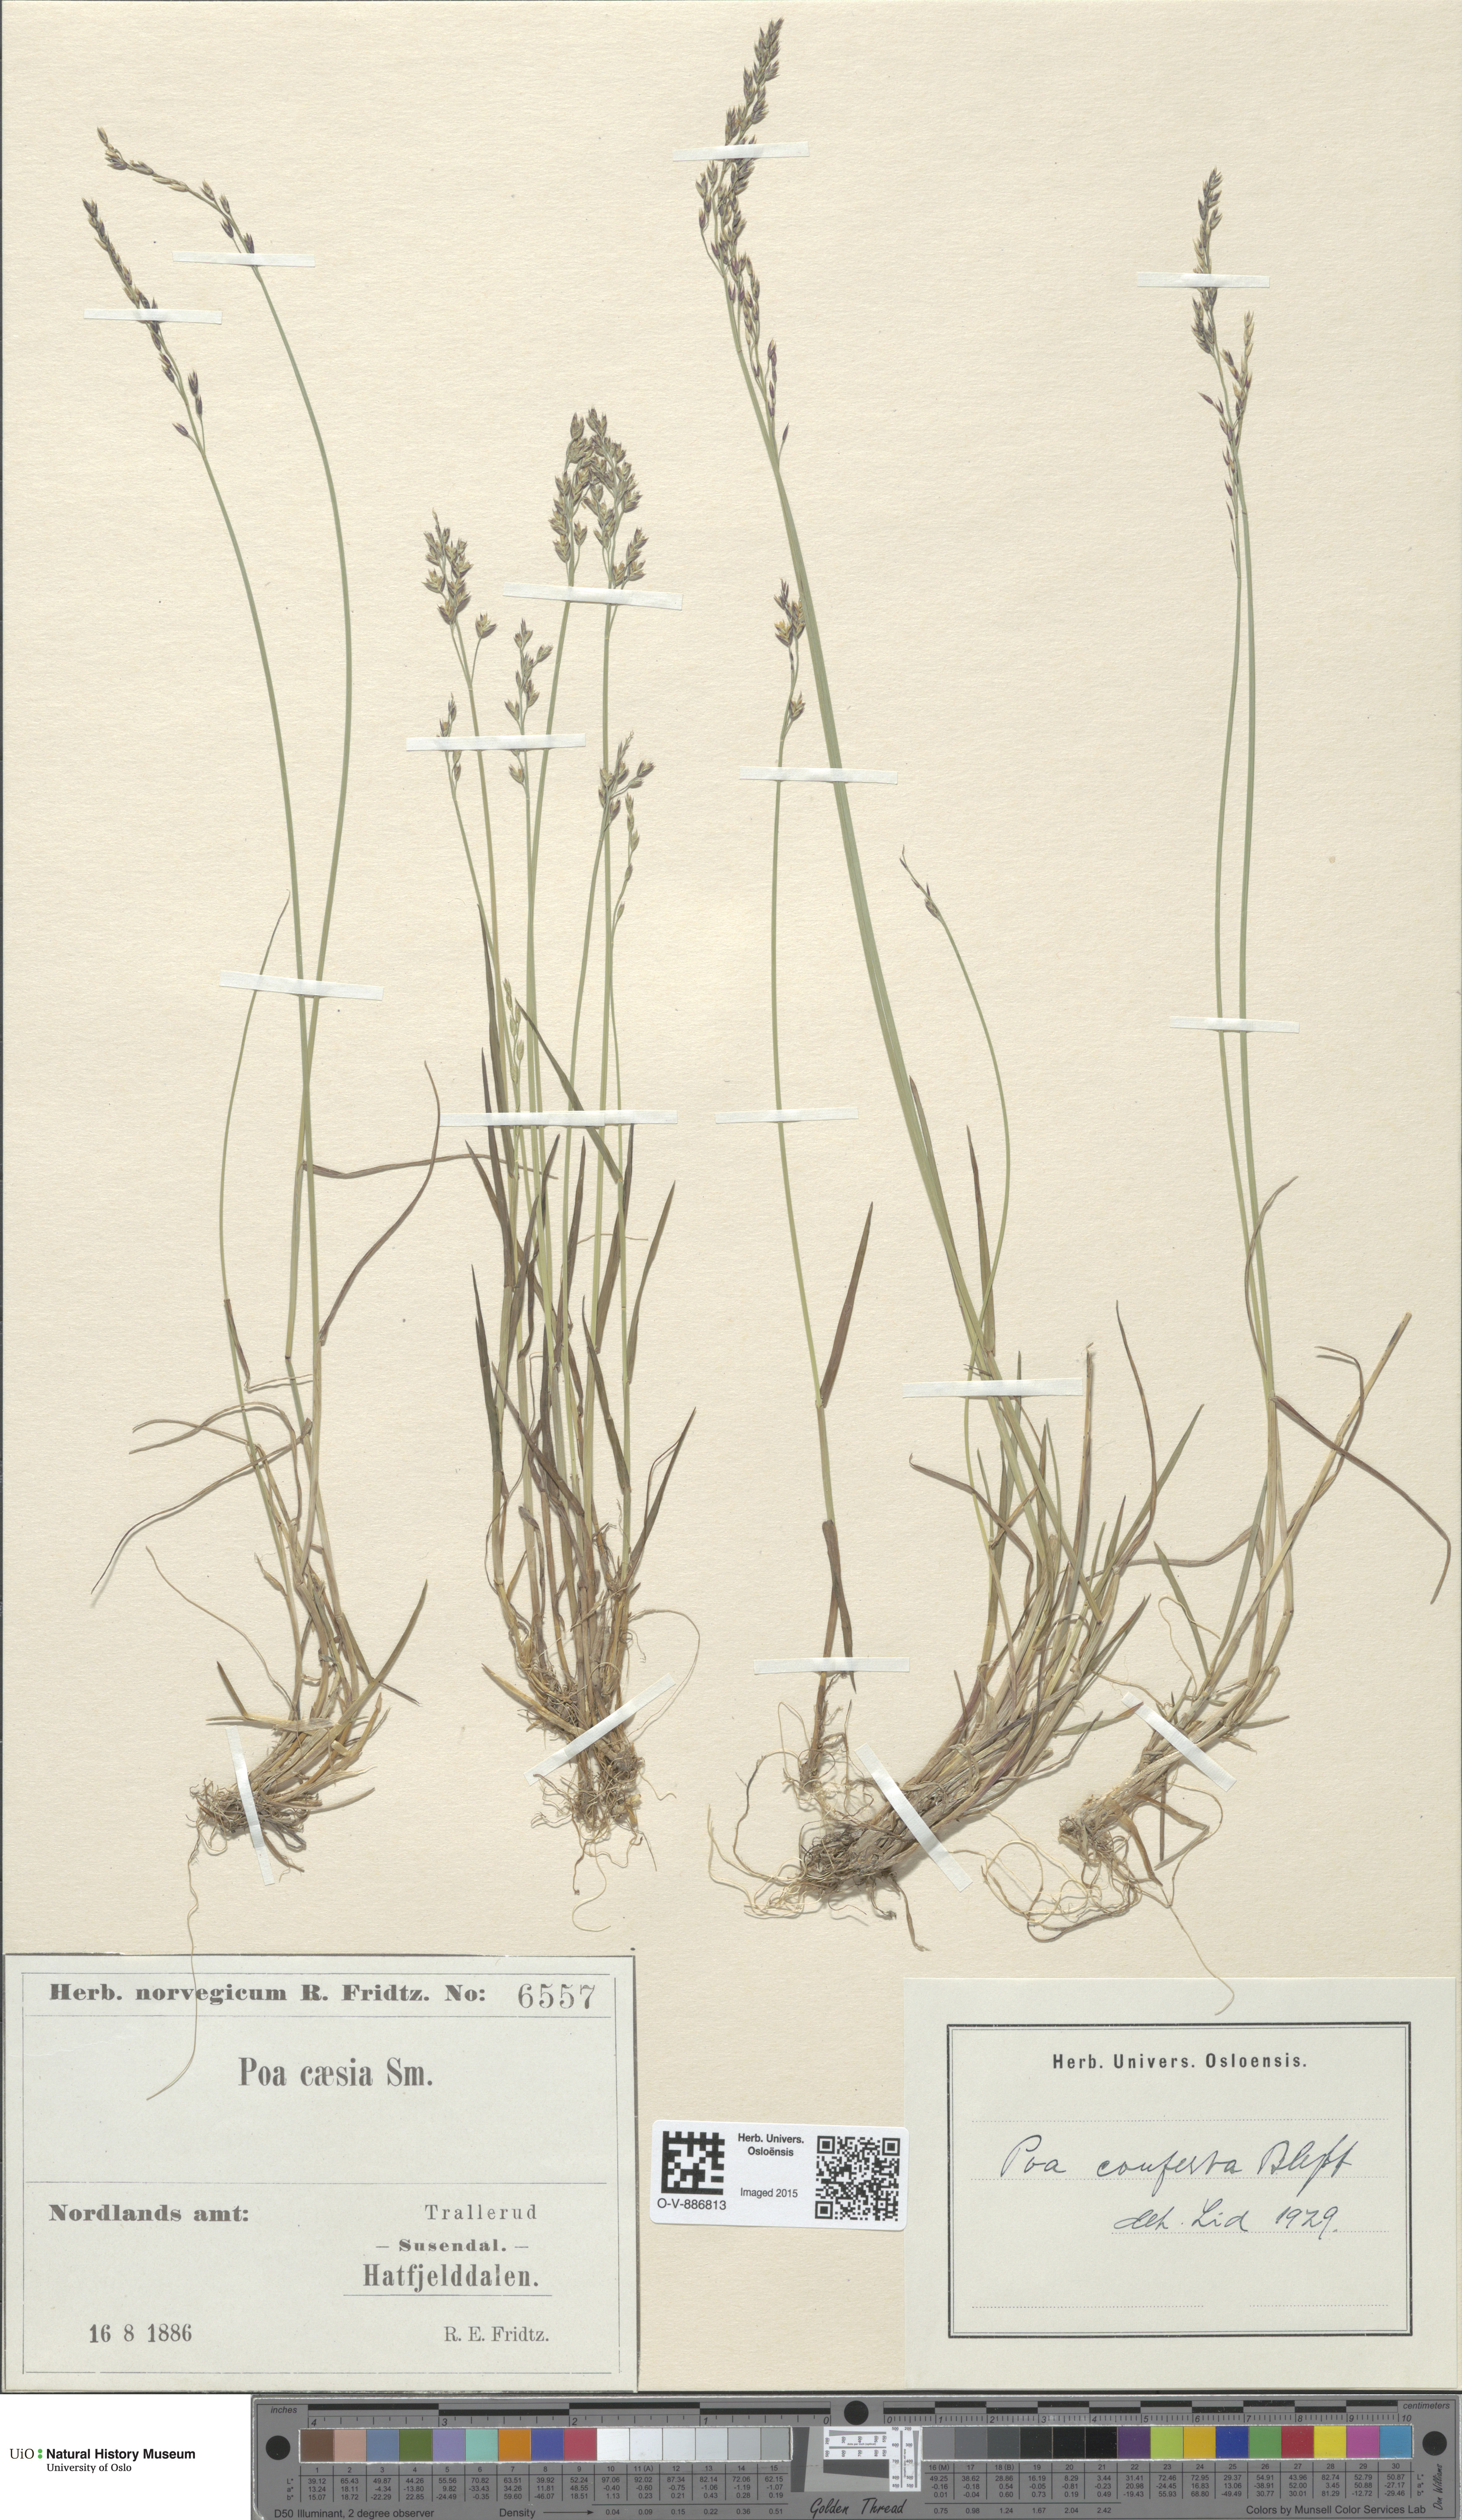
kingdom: Plantae
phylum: Tracheophyta
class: Liliopsida
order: Poales
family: Poaceae
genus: Poa
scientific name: Poa glauca
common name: Glaucous bluegrass
